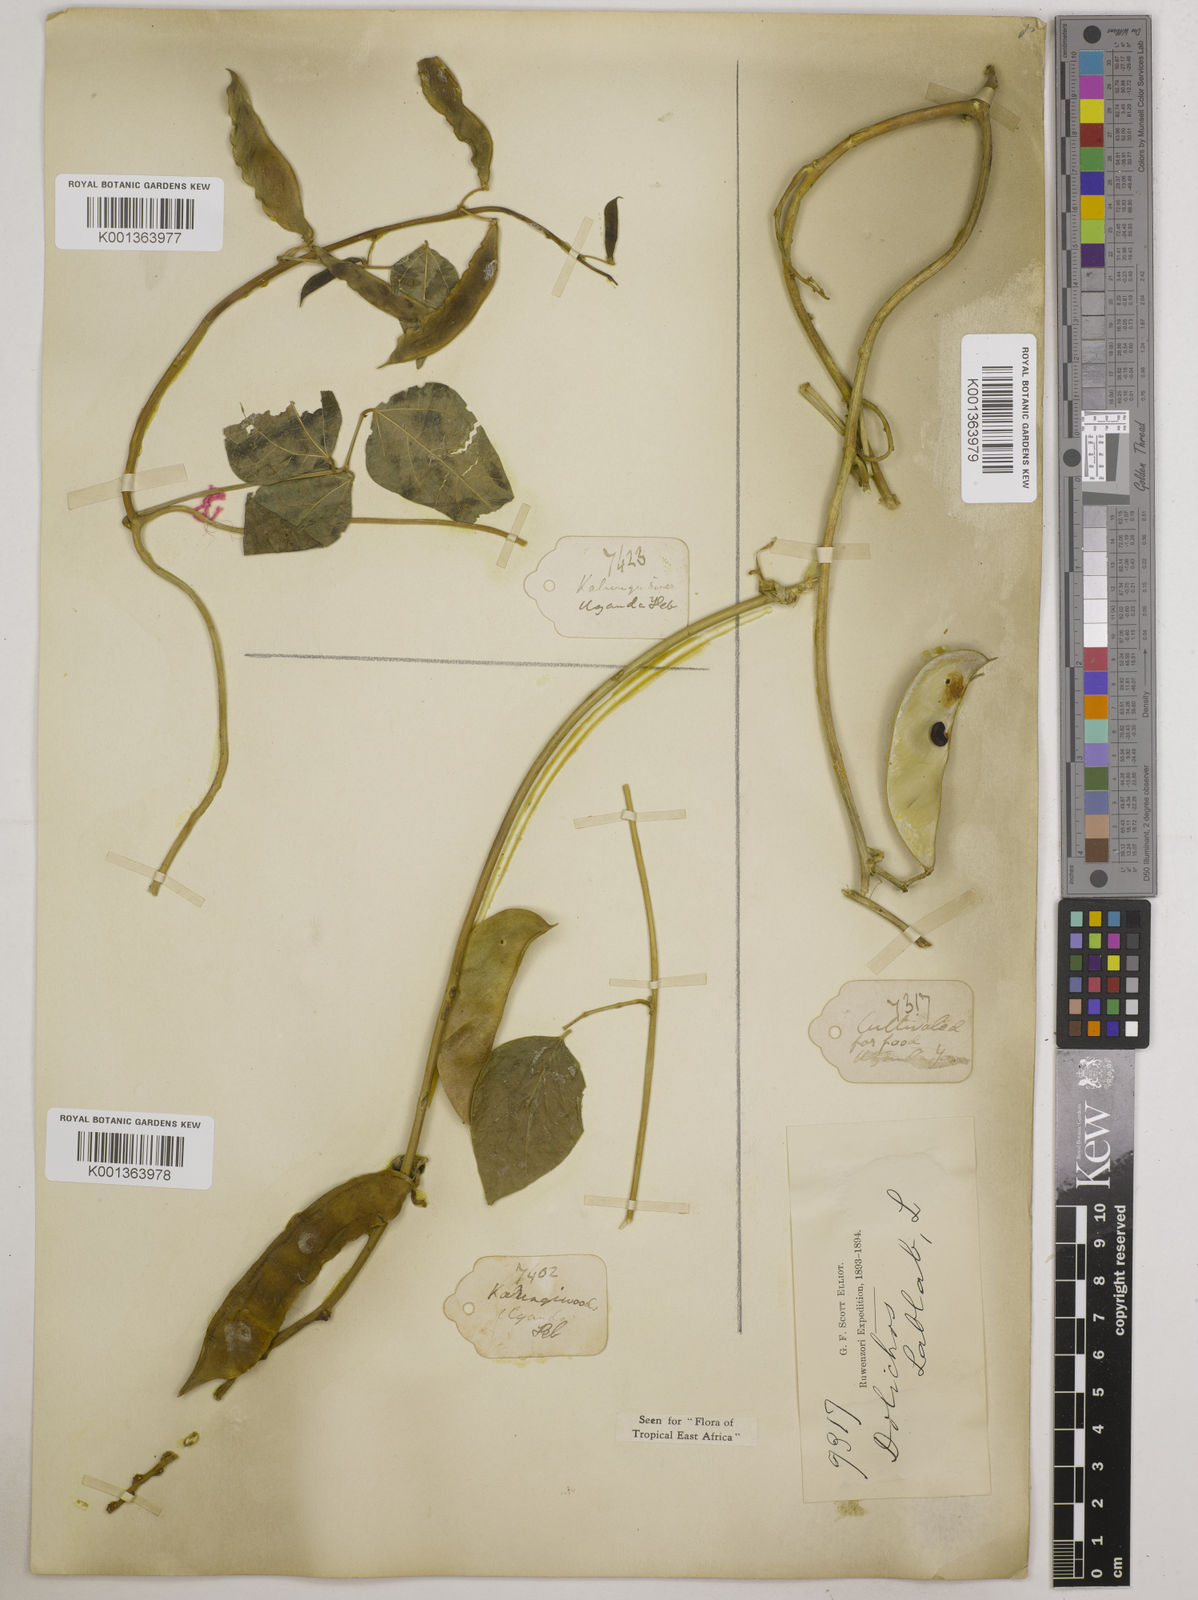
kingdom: Plantae
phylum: Tracheophyta
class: Magnoliopsida
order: Fabales
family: Fabaceae
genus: Phaseolus
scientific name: Phaseolus lunatus
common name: Sieva bean
